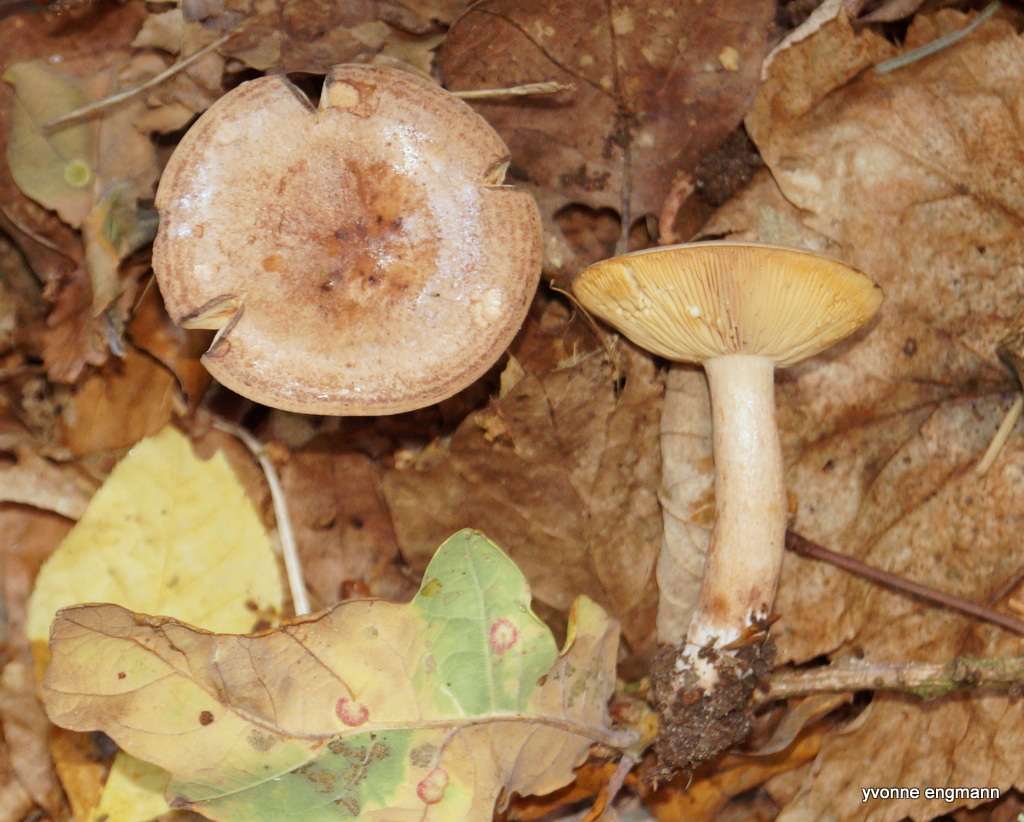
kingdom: Fungi
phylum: Basidiomycota
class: Agaricomycetes
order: Russulales
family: Russulaceae
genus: Lactarius
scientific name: Lactarius quietus
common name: ege-mælkehat
